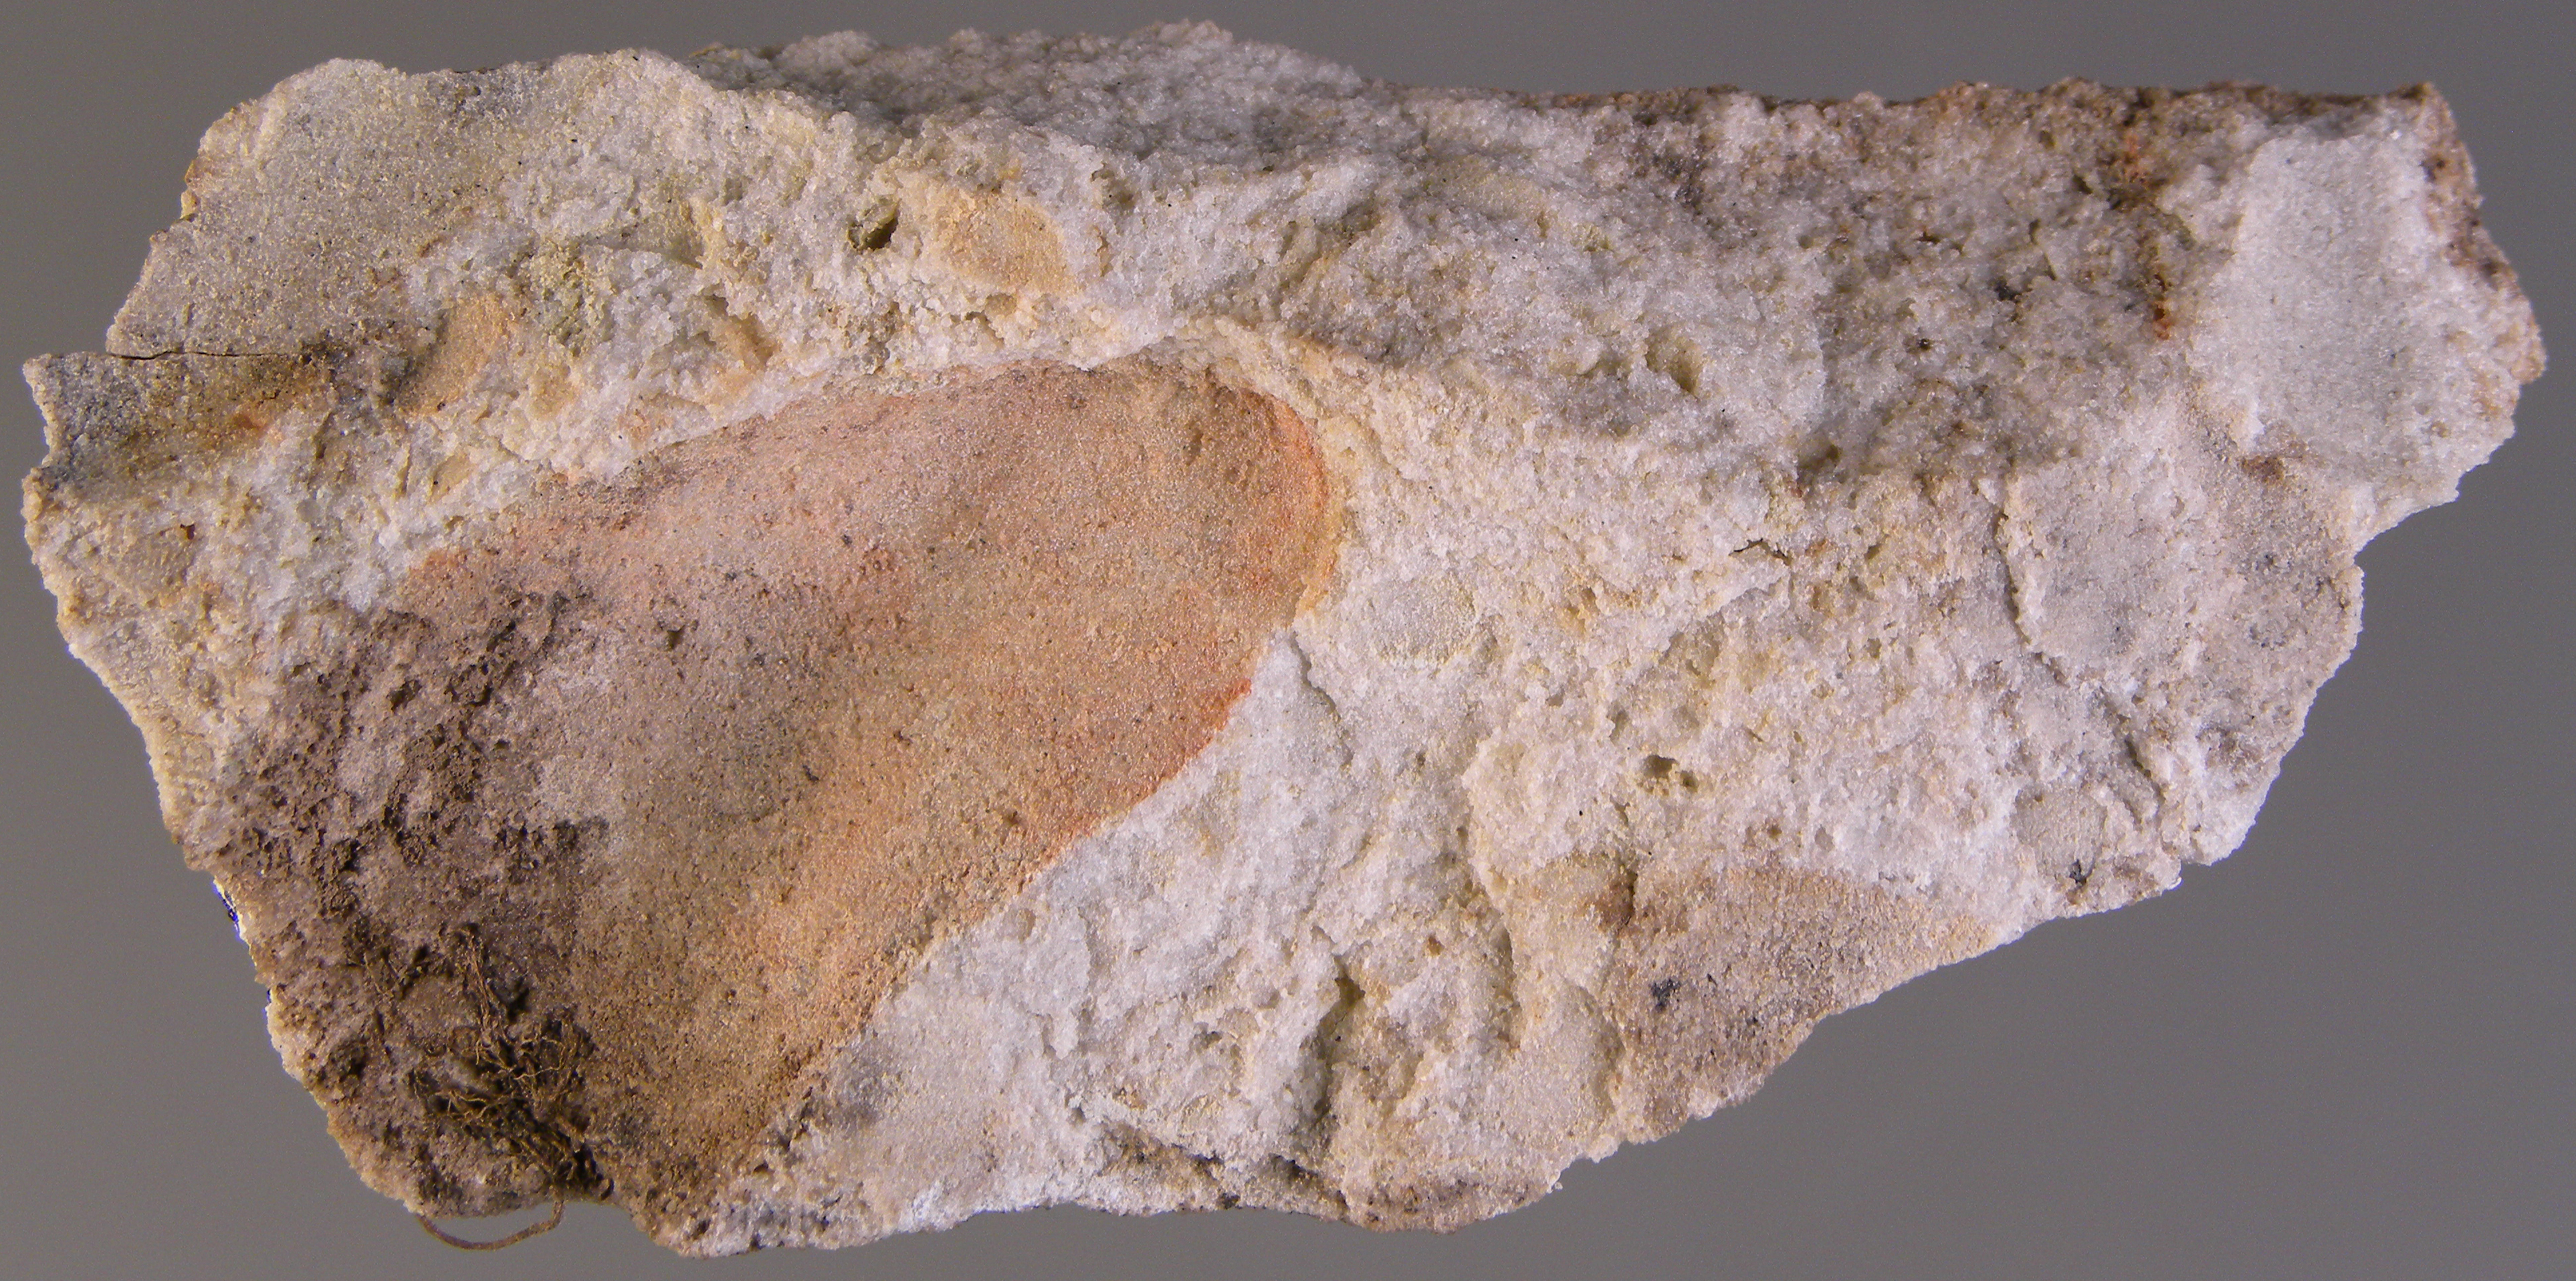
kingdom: Animalia
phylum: Mollusca
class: Bivalvia
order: Modiomorphida
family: Modiomorphidae
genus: Modiomorpha
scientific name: Modiomorpha
